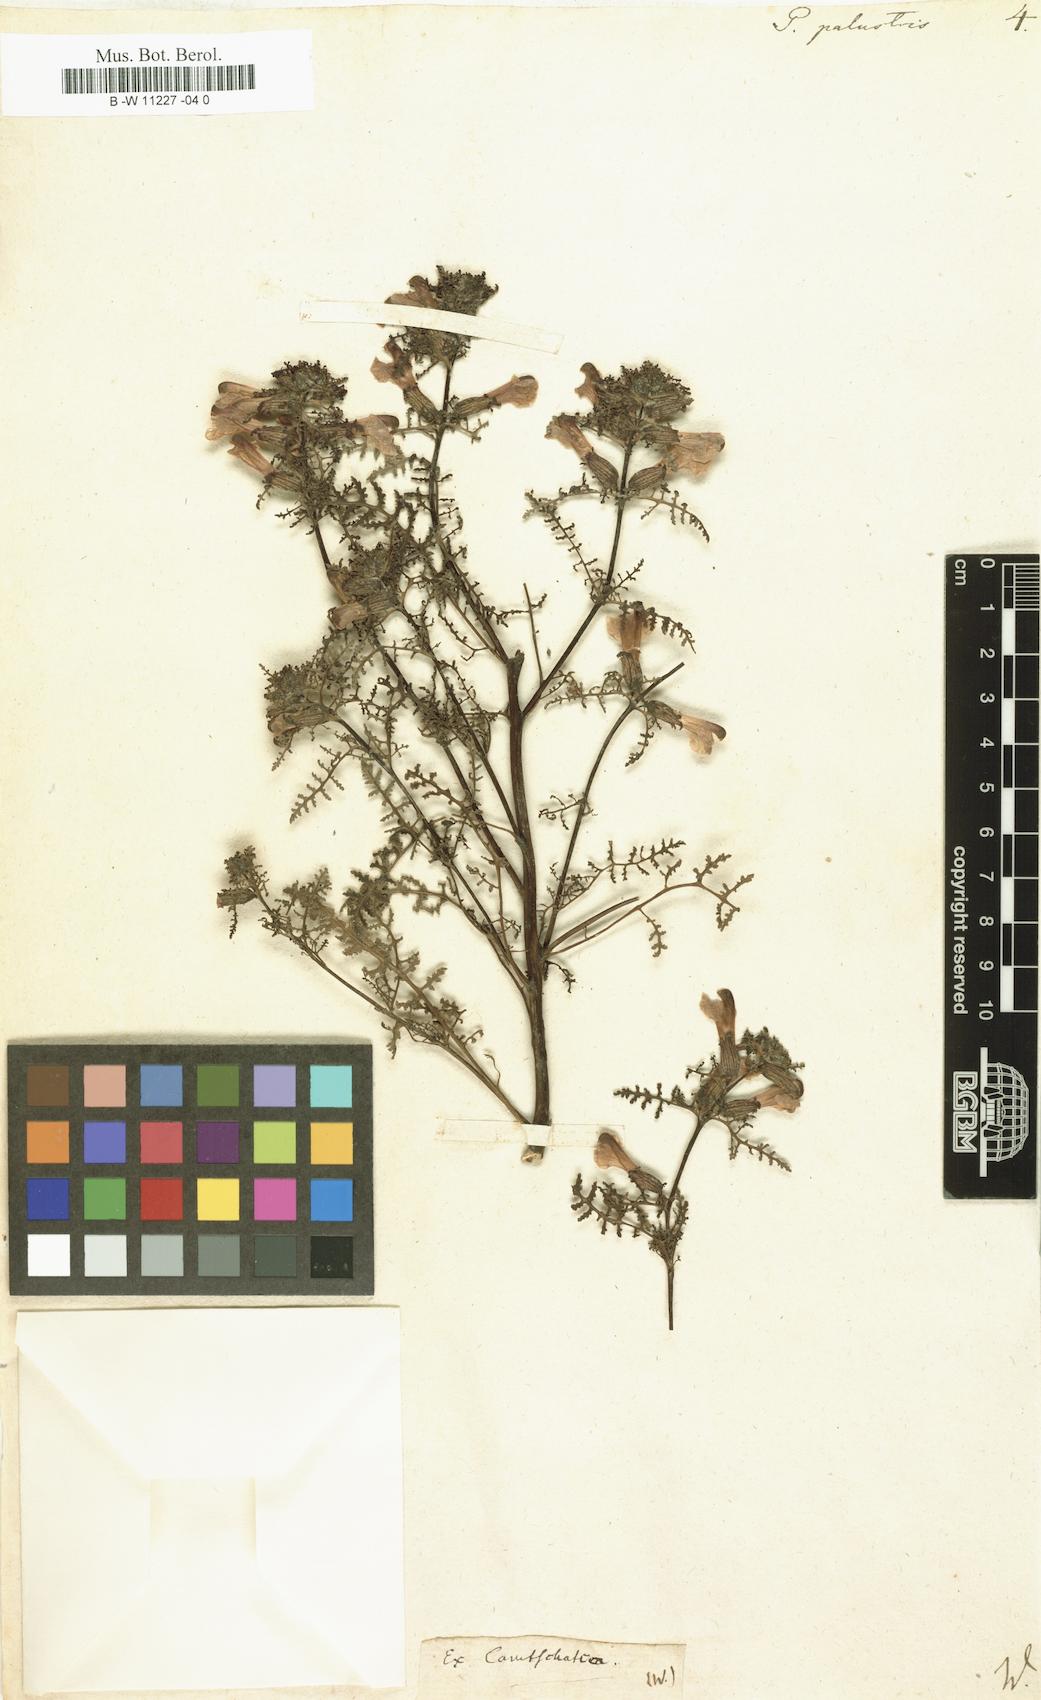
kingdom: Plantae
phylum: Tracheophyta
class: Magnoliopsida
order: Lamiales
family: Orobanchaceae
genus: Pedicularis
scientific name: Pedicularis palustris
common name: Marsh lousewort
